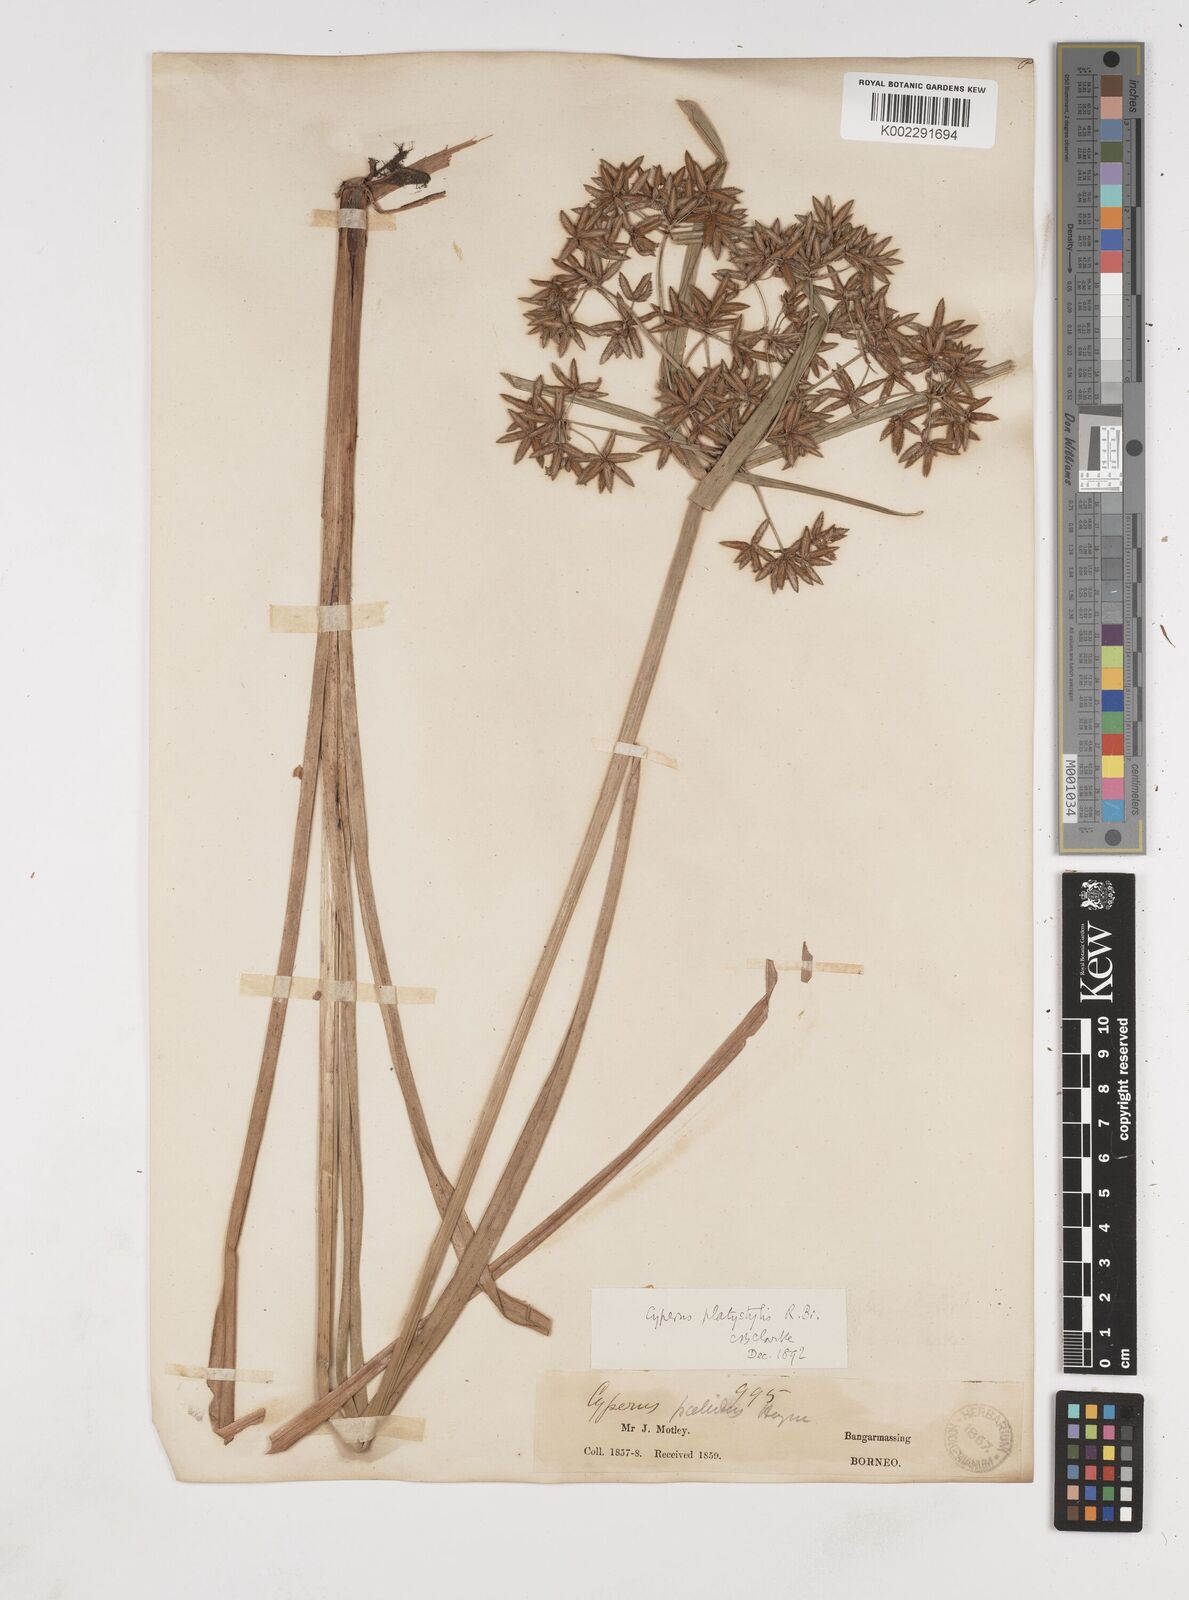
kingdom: Plantae
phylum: Tracheophyta
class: Liliopsida
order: Poales
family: Cyperaceae
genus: Cyperus
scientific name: Cyperus platystylis
